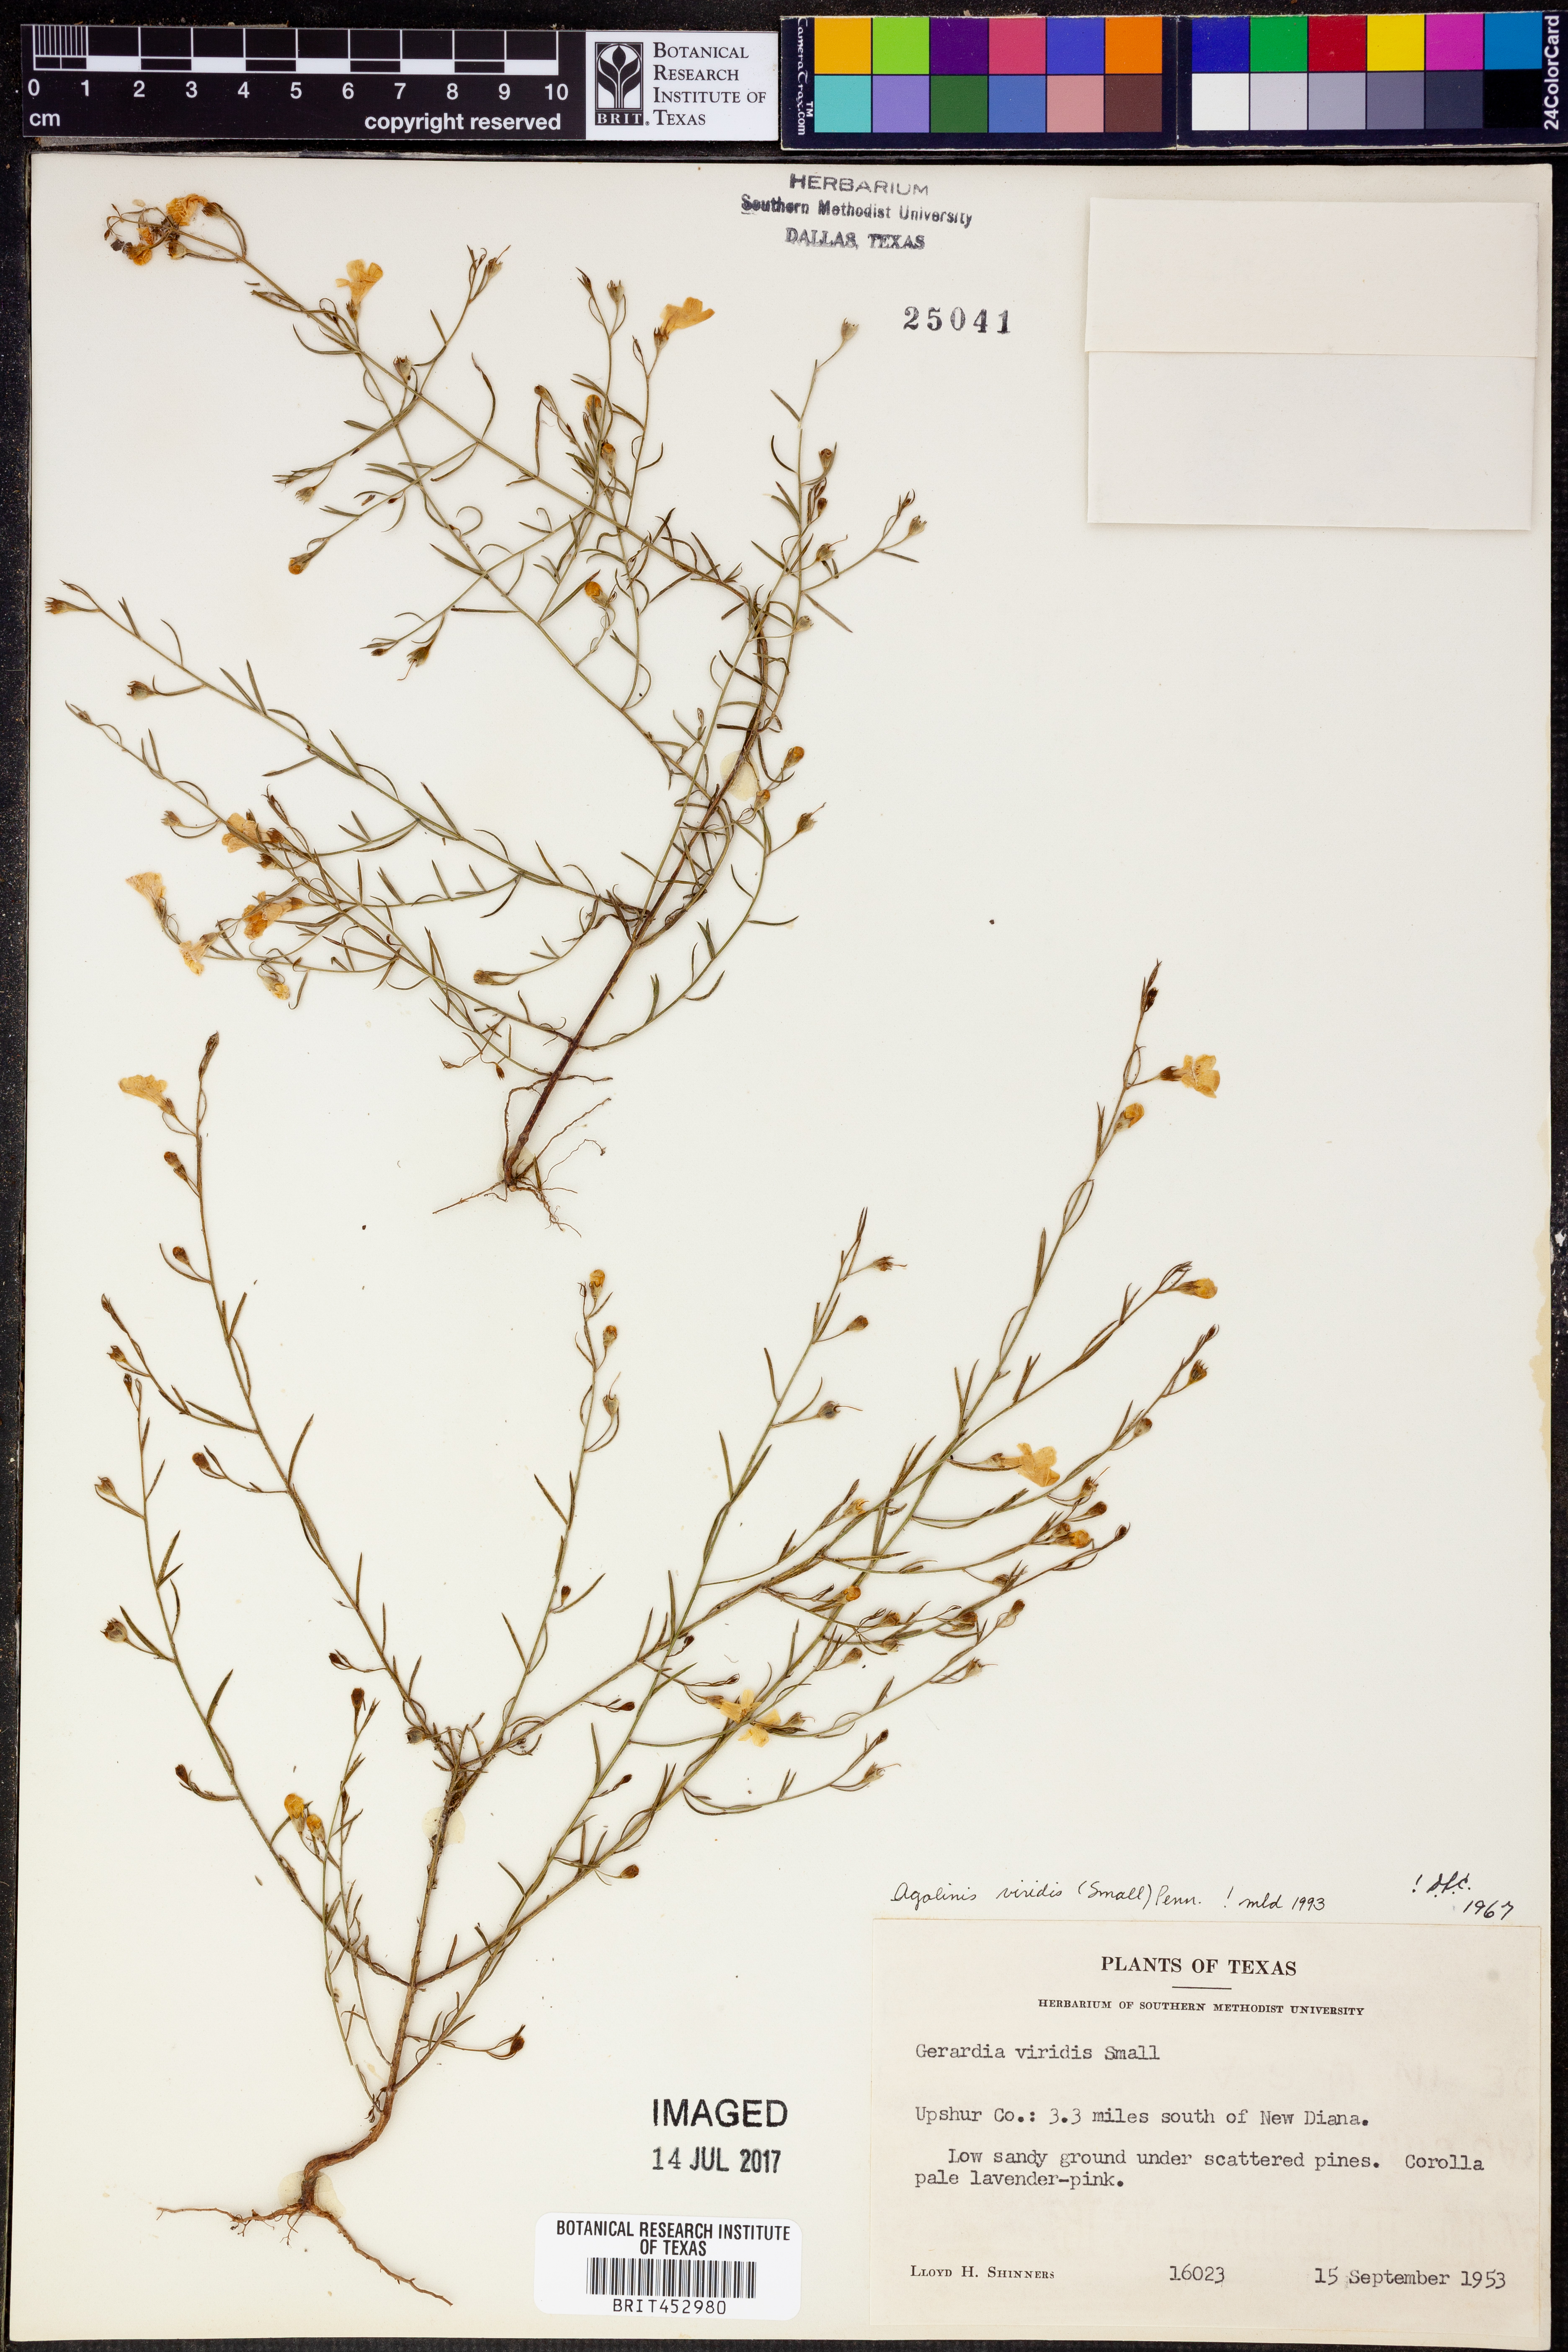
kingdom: Plantae
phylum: Tracheophyta
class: Magnoliopsida
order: Lamiales
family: Orobanchaceae
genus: Agalinis
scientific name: Agalinis viridis
